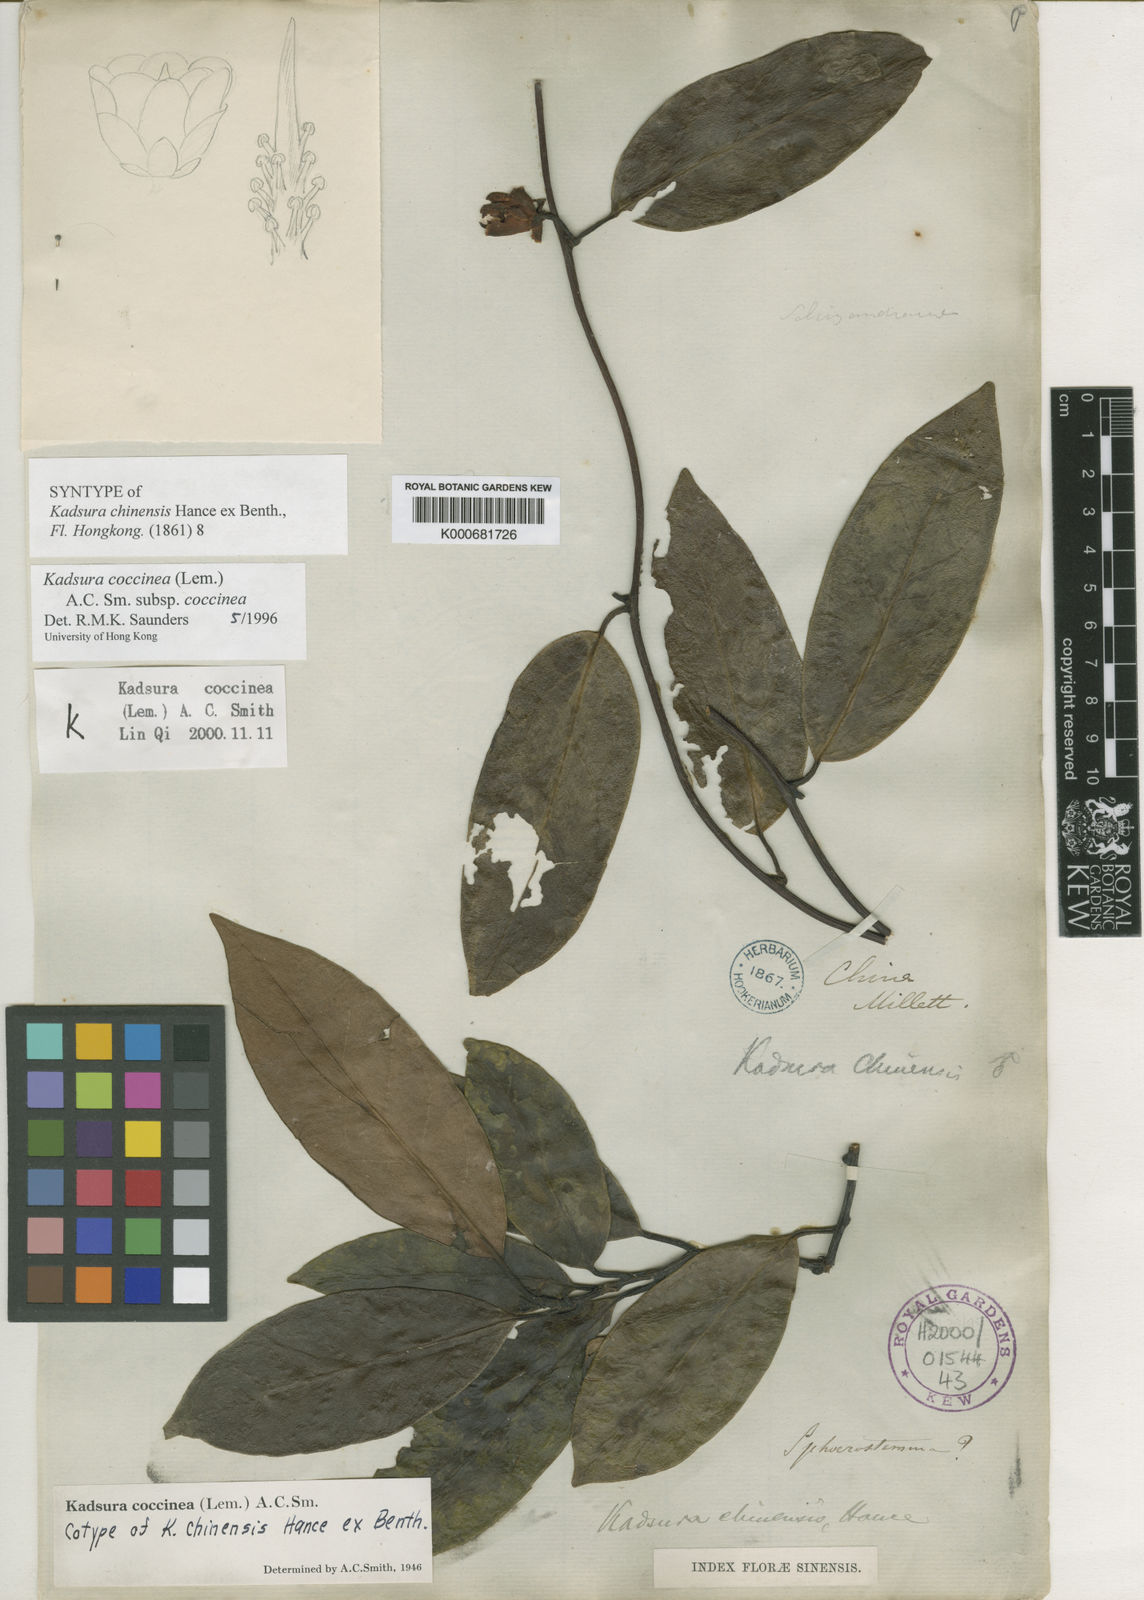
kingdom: Plantae
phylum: Tracheophyta
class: Magnoliopsida
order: Austrobaileyales
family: Schisandraceae
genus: Kadsura
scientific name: Kadsura coccinea
